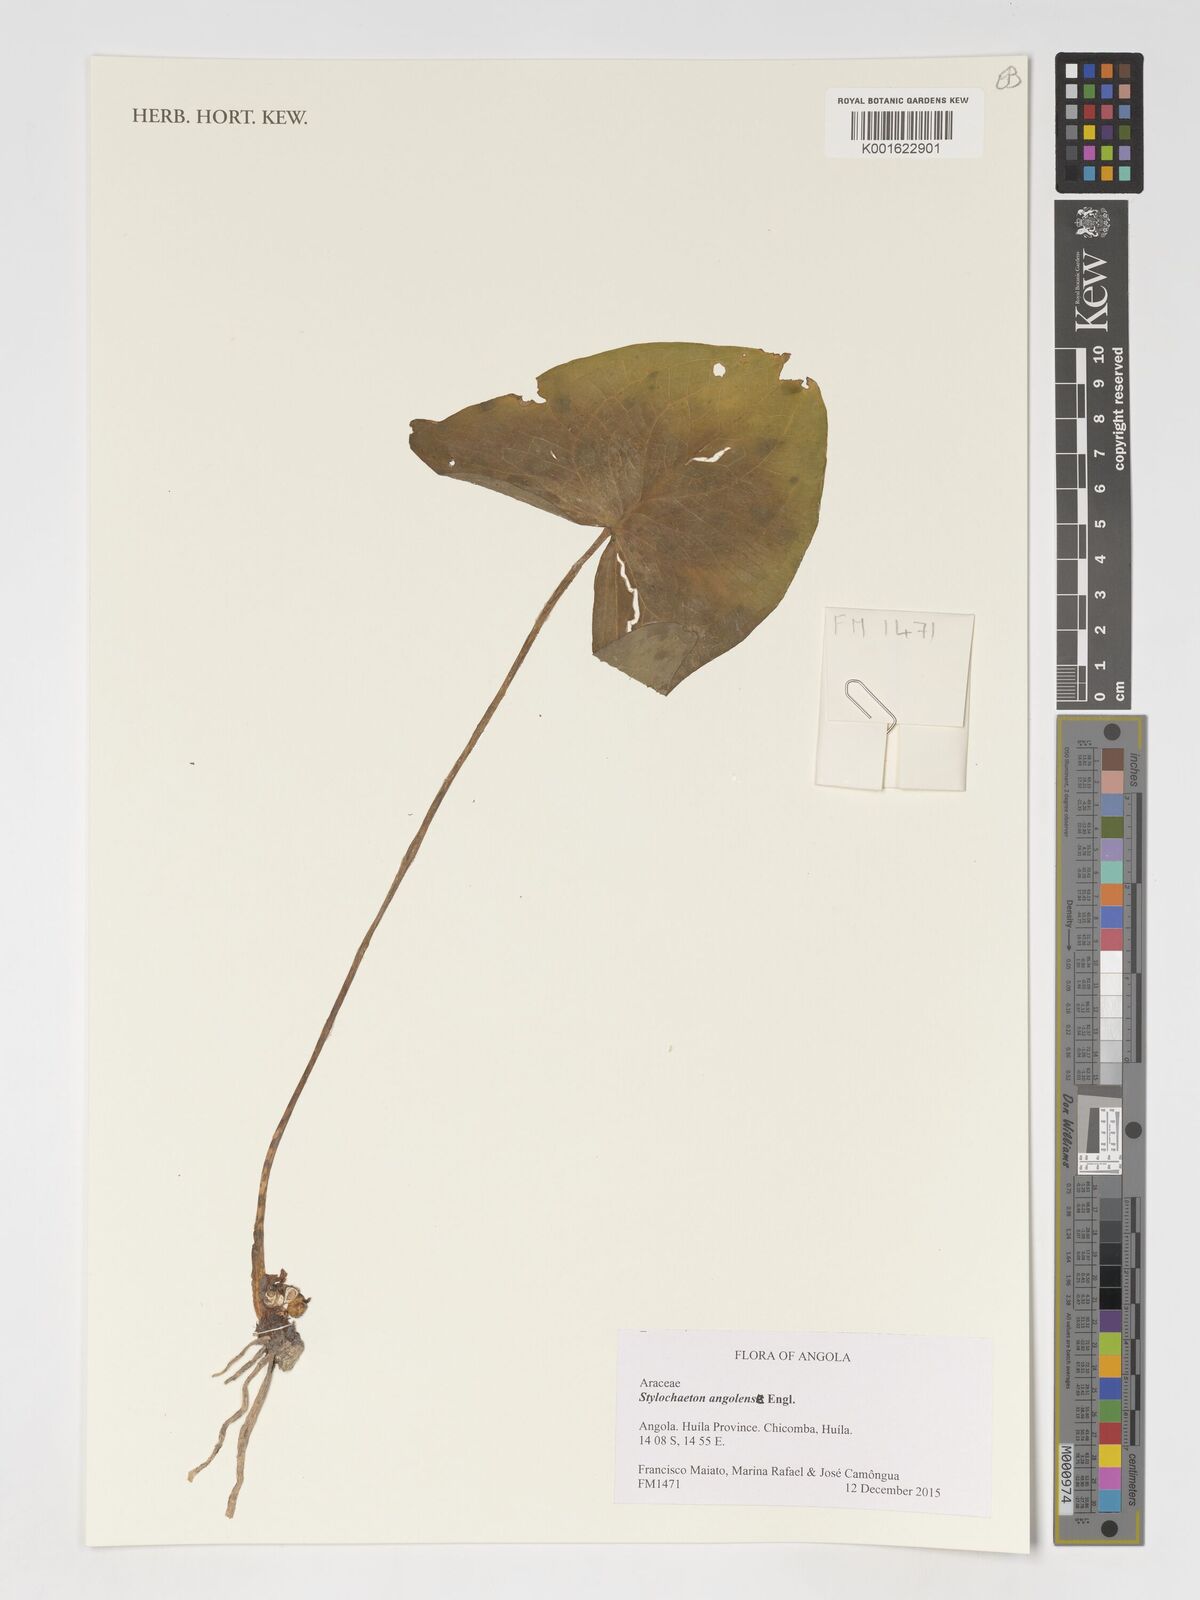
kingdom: Plantae
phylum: Tracheophyta
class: Liliopsida
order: Alismatales
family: Araceae
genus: Stylochaeton
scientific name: Stylochaeton angolense
